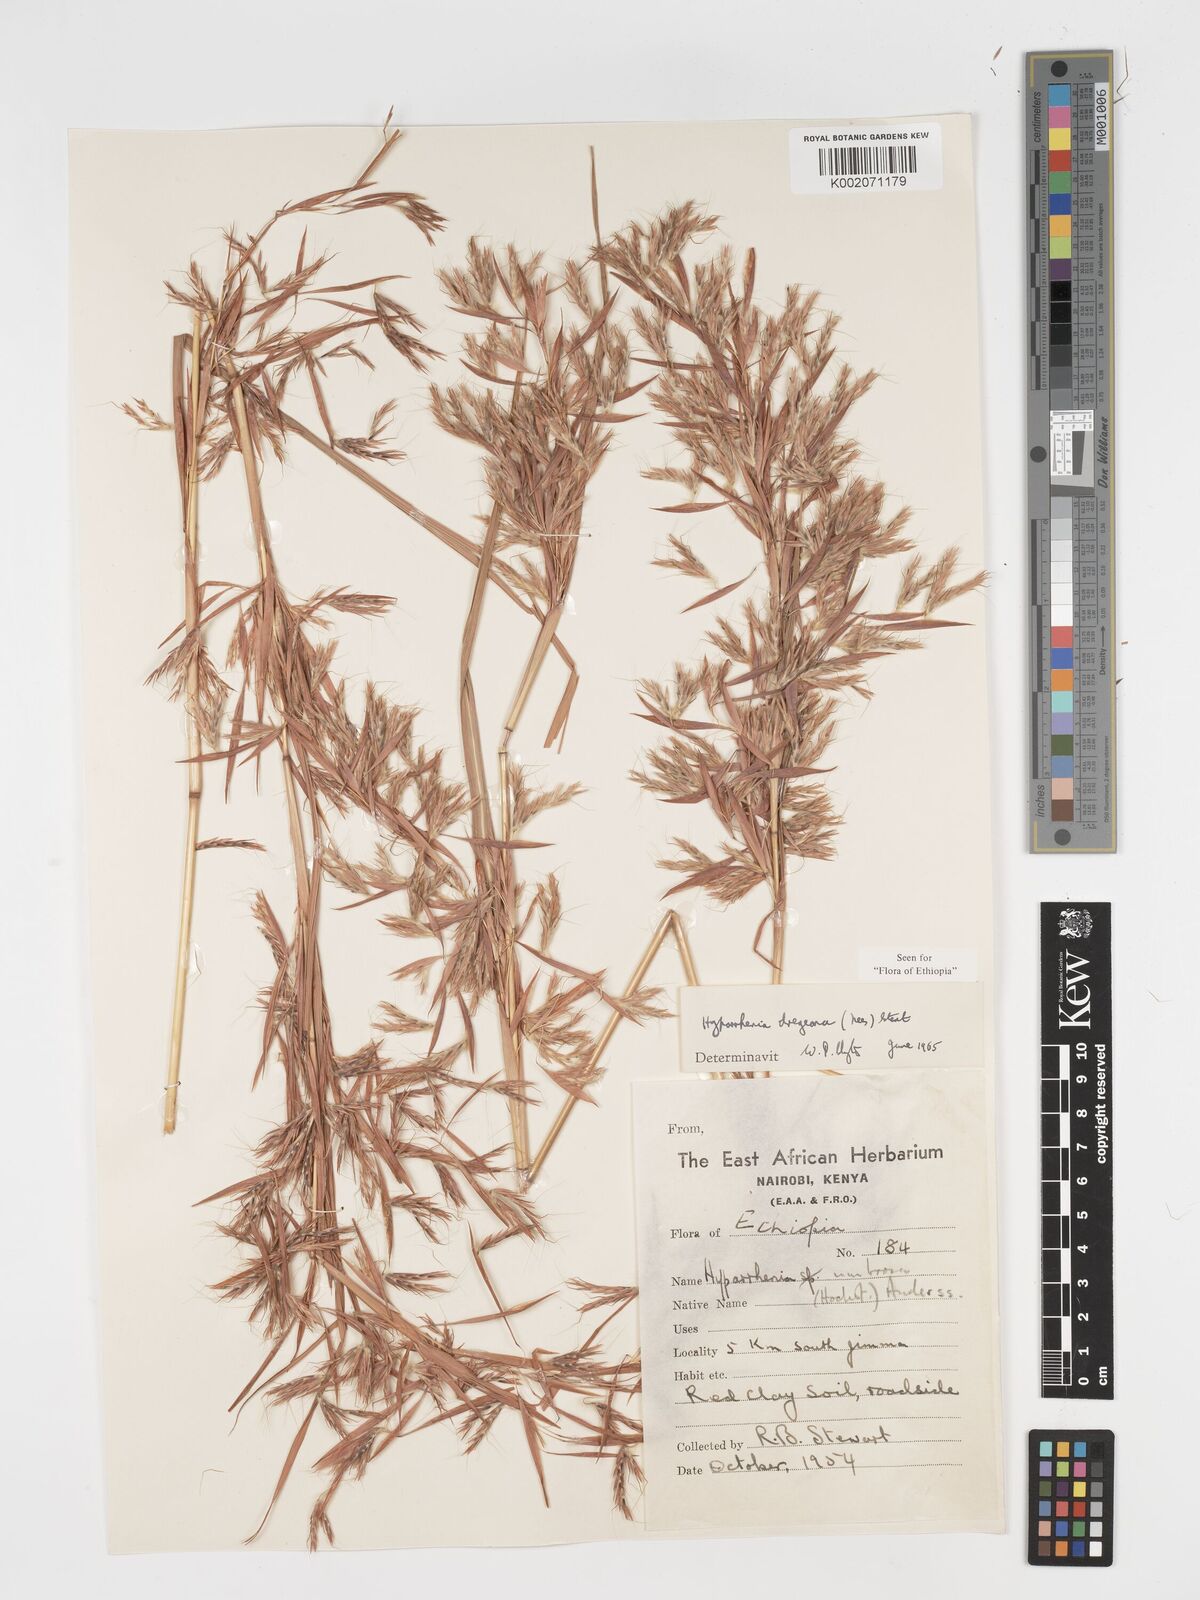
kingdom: Plantae
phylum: Tracheophyta
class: Liliopsida
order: Poales
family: Poaceae
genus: Hyparrhenia
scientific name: Hyparrhenia dregeana
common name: Silky thatching grass
